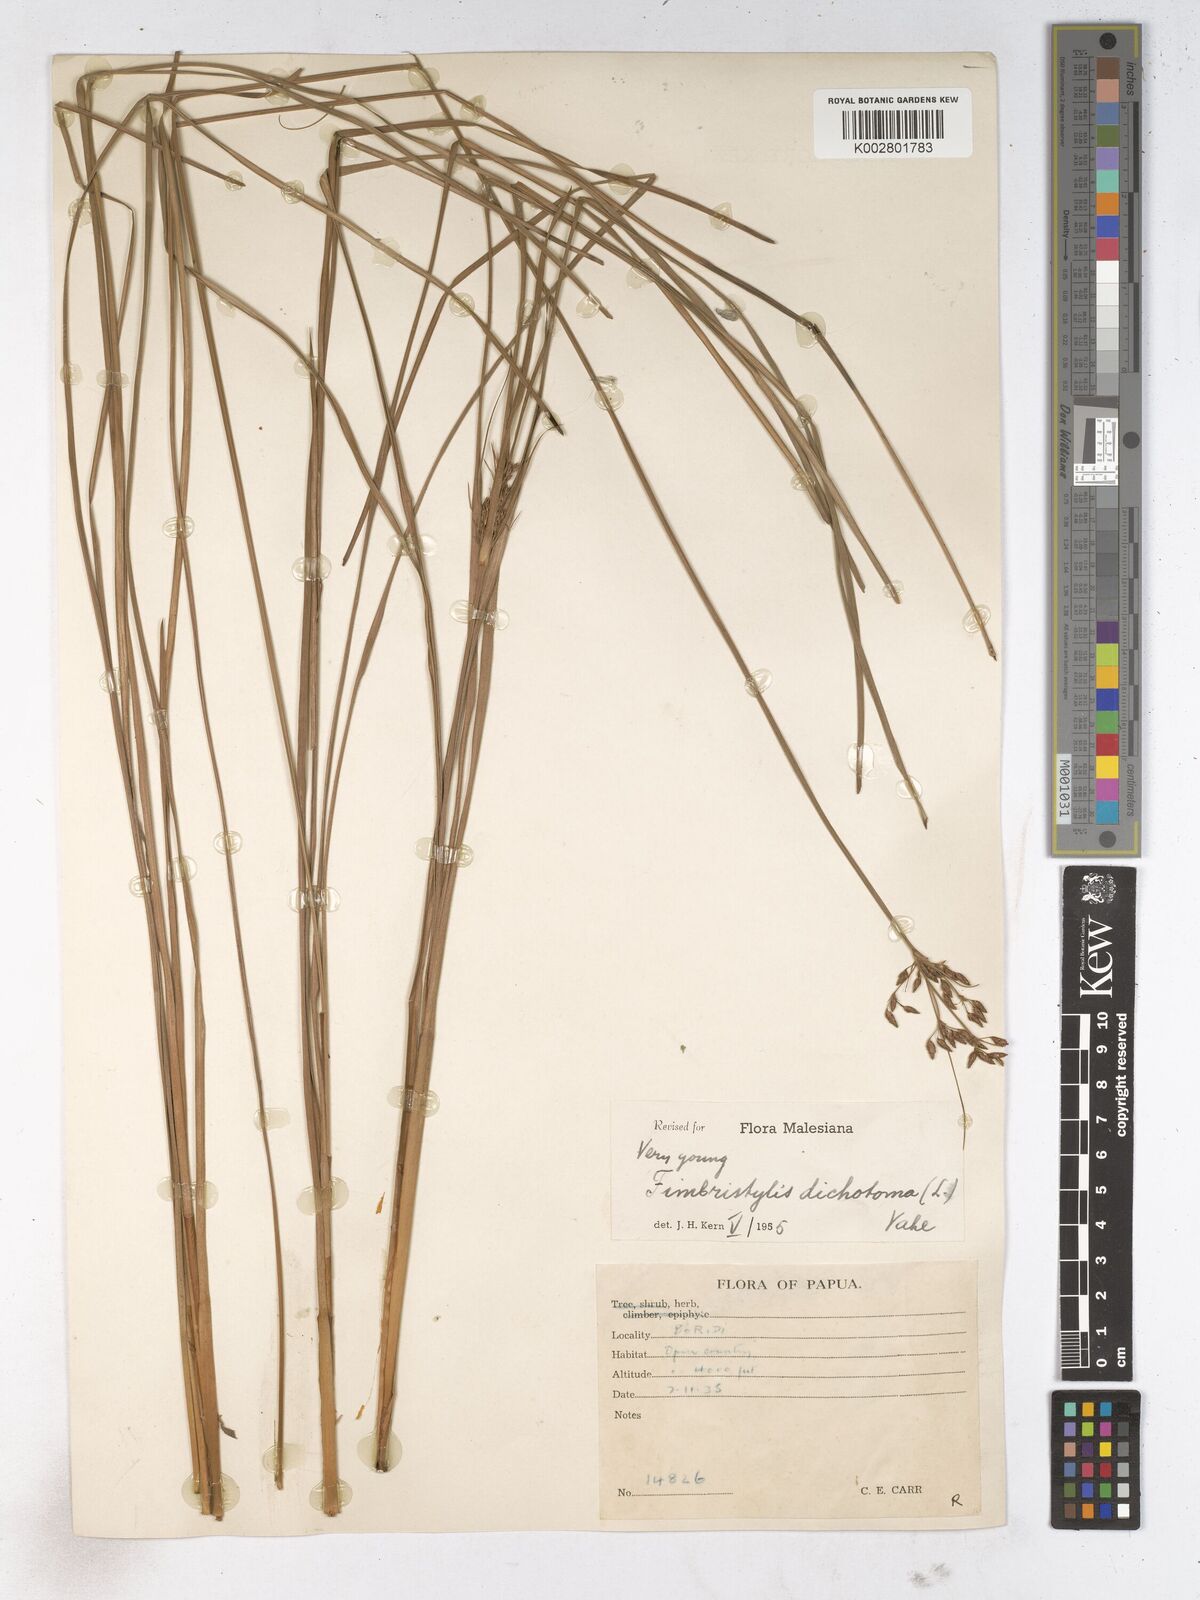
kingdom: Plantae
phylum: Tracheophyta
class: Liliopsida
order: Poales
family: Cyperaceae
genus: Fimbristylis
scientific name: Fimbristylis dichotoma
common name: Forked fimbry
